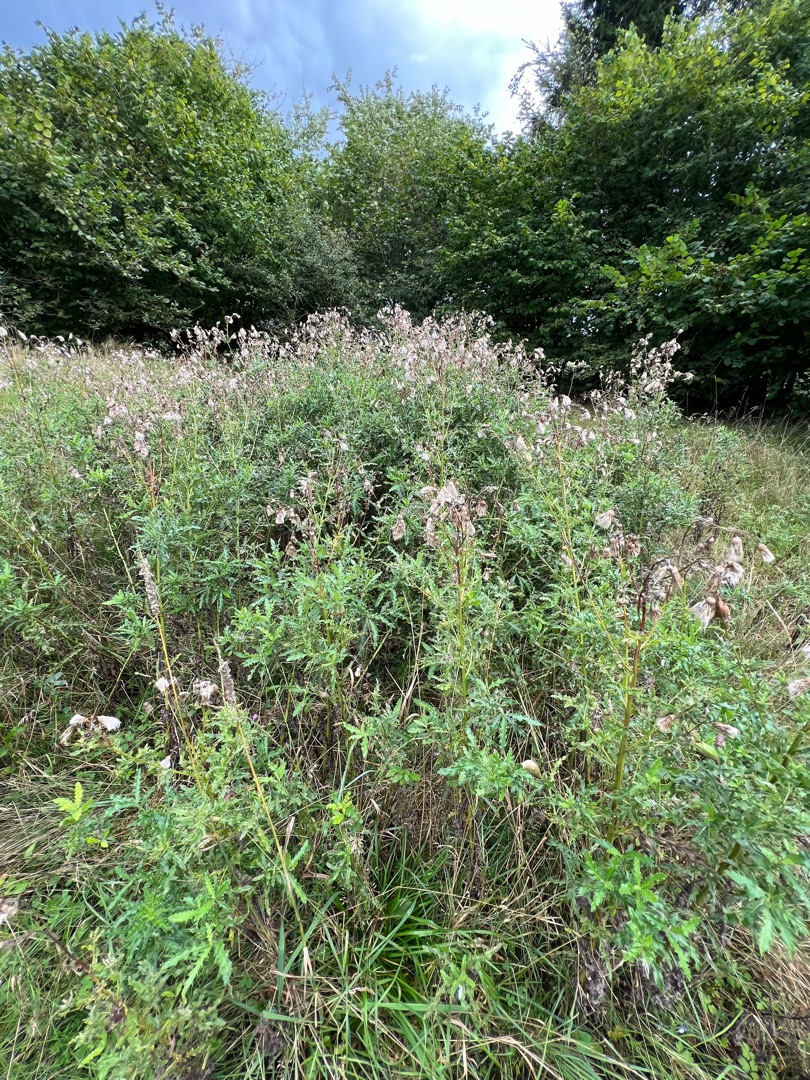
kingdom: Plantae
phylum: Tracheophyta
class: Magnoliopsida
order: Asterales
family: Asteraceae
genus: Cirsium
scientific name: Cirsium arvense
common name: Ager-tidsel
